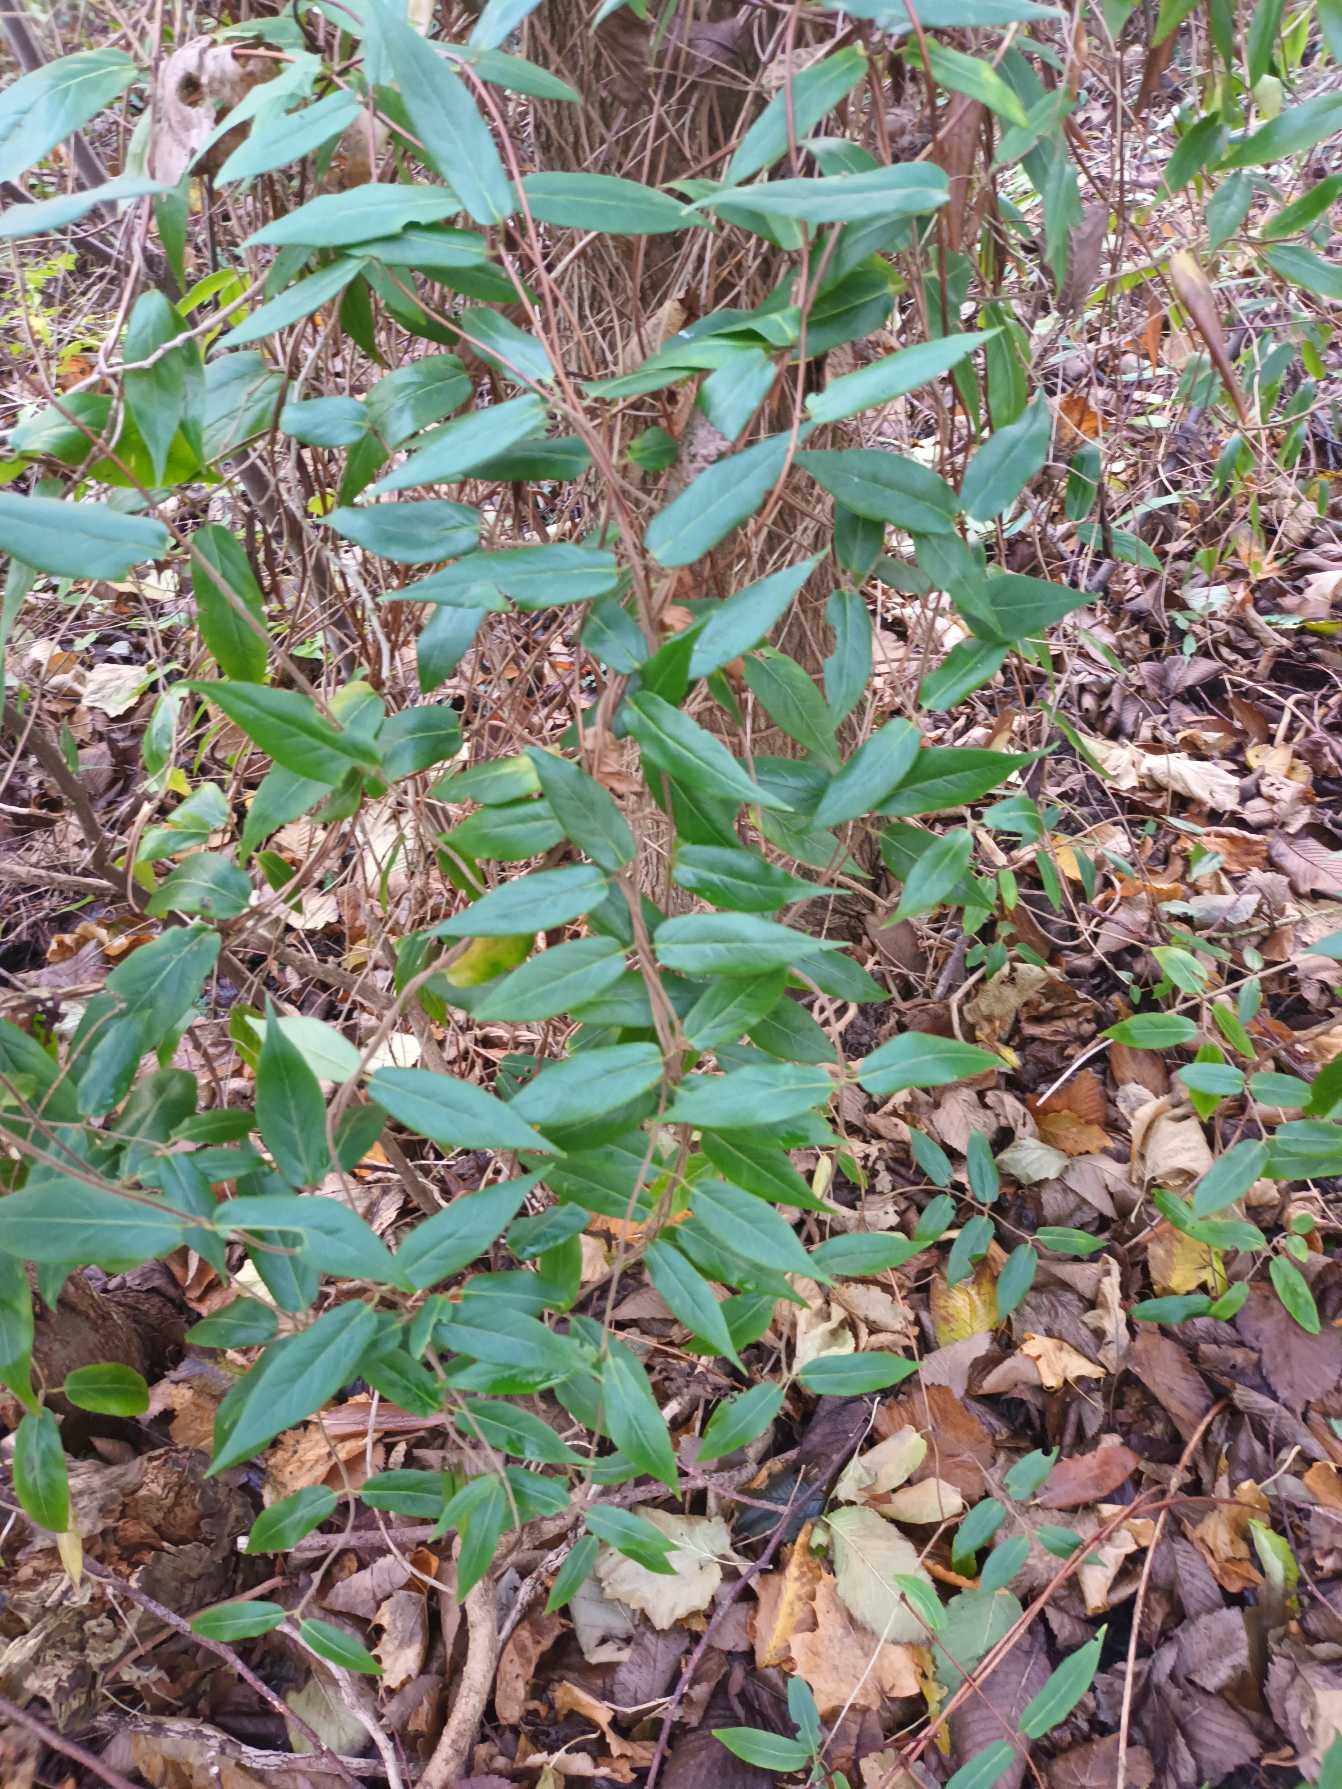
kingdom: Plantae
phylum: Tracheophyta
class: Magnoliopsida
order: Dipsacales
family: Caprifoliaceae
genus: Lonicera
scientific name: Lonicera acuminata
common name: Henrys gedeblad
